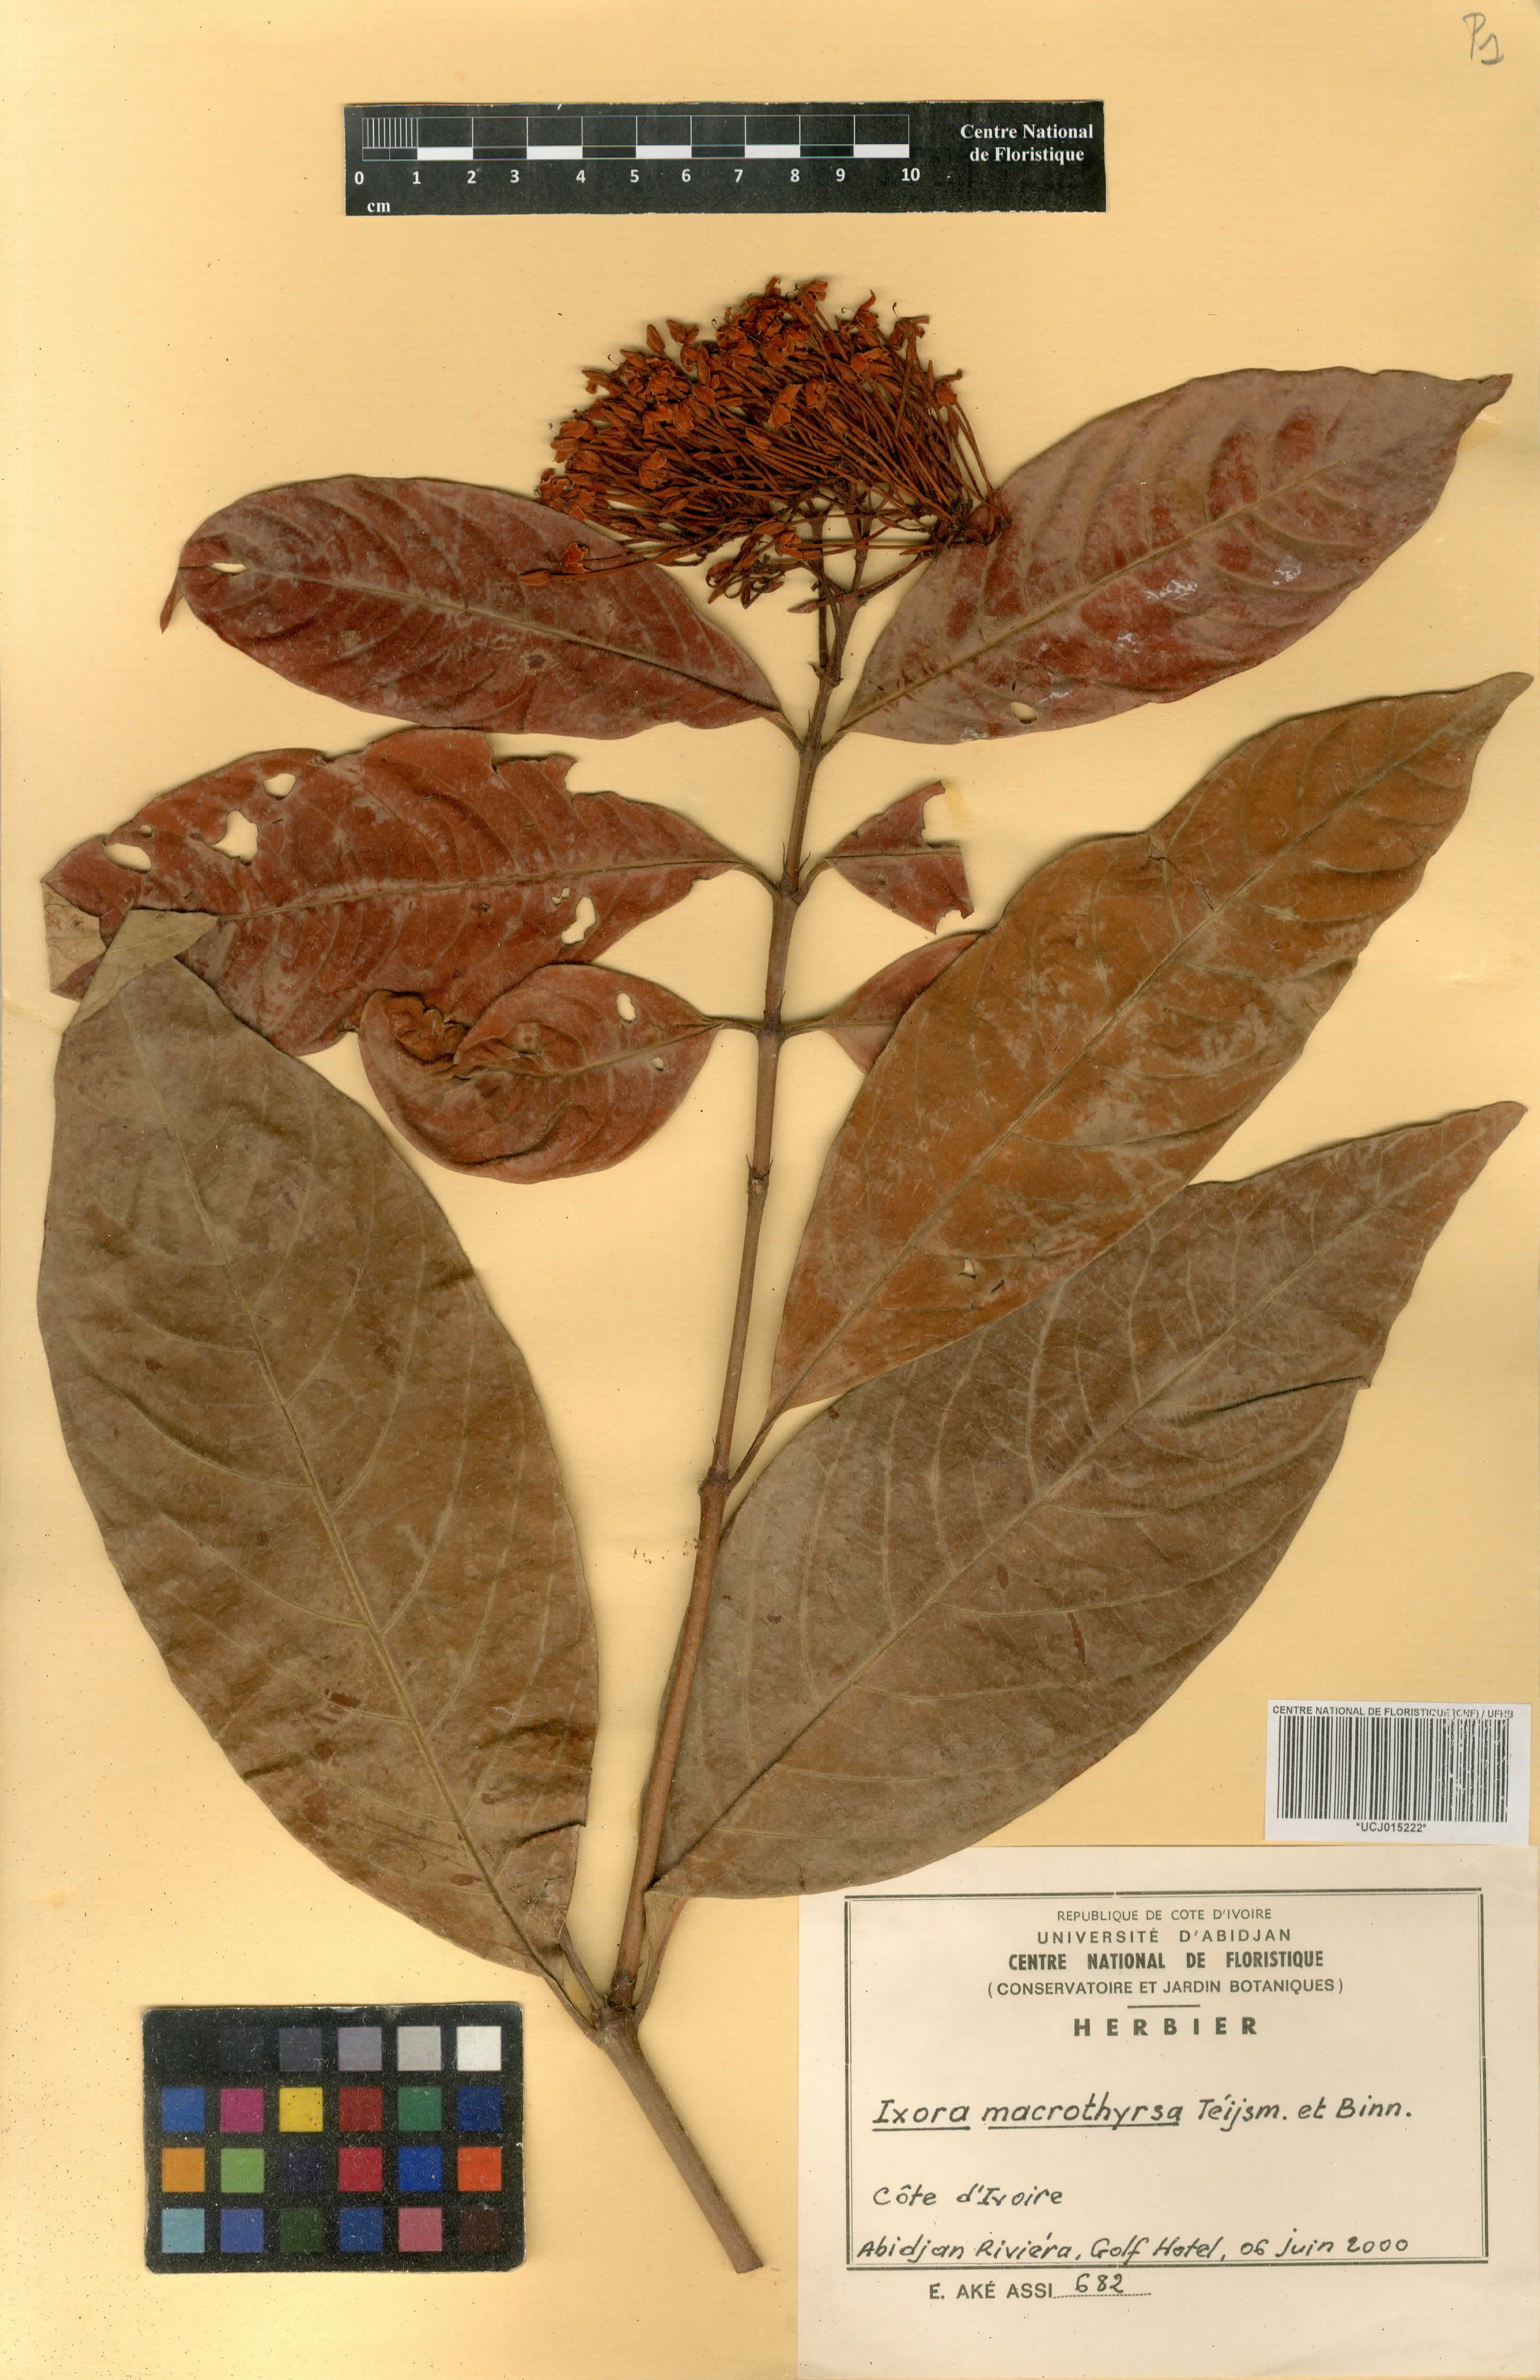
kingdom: Plantae
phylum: Tracheophyta
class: Magnoliopsida
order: Gentianales
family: Rubiaceae
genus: Ixora
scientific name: Ixora macrothyrsa
